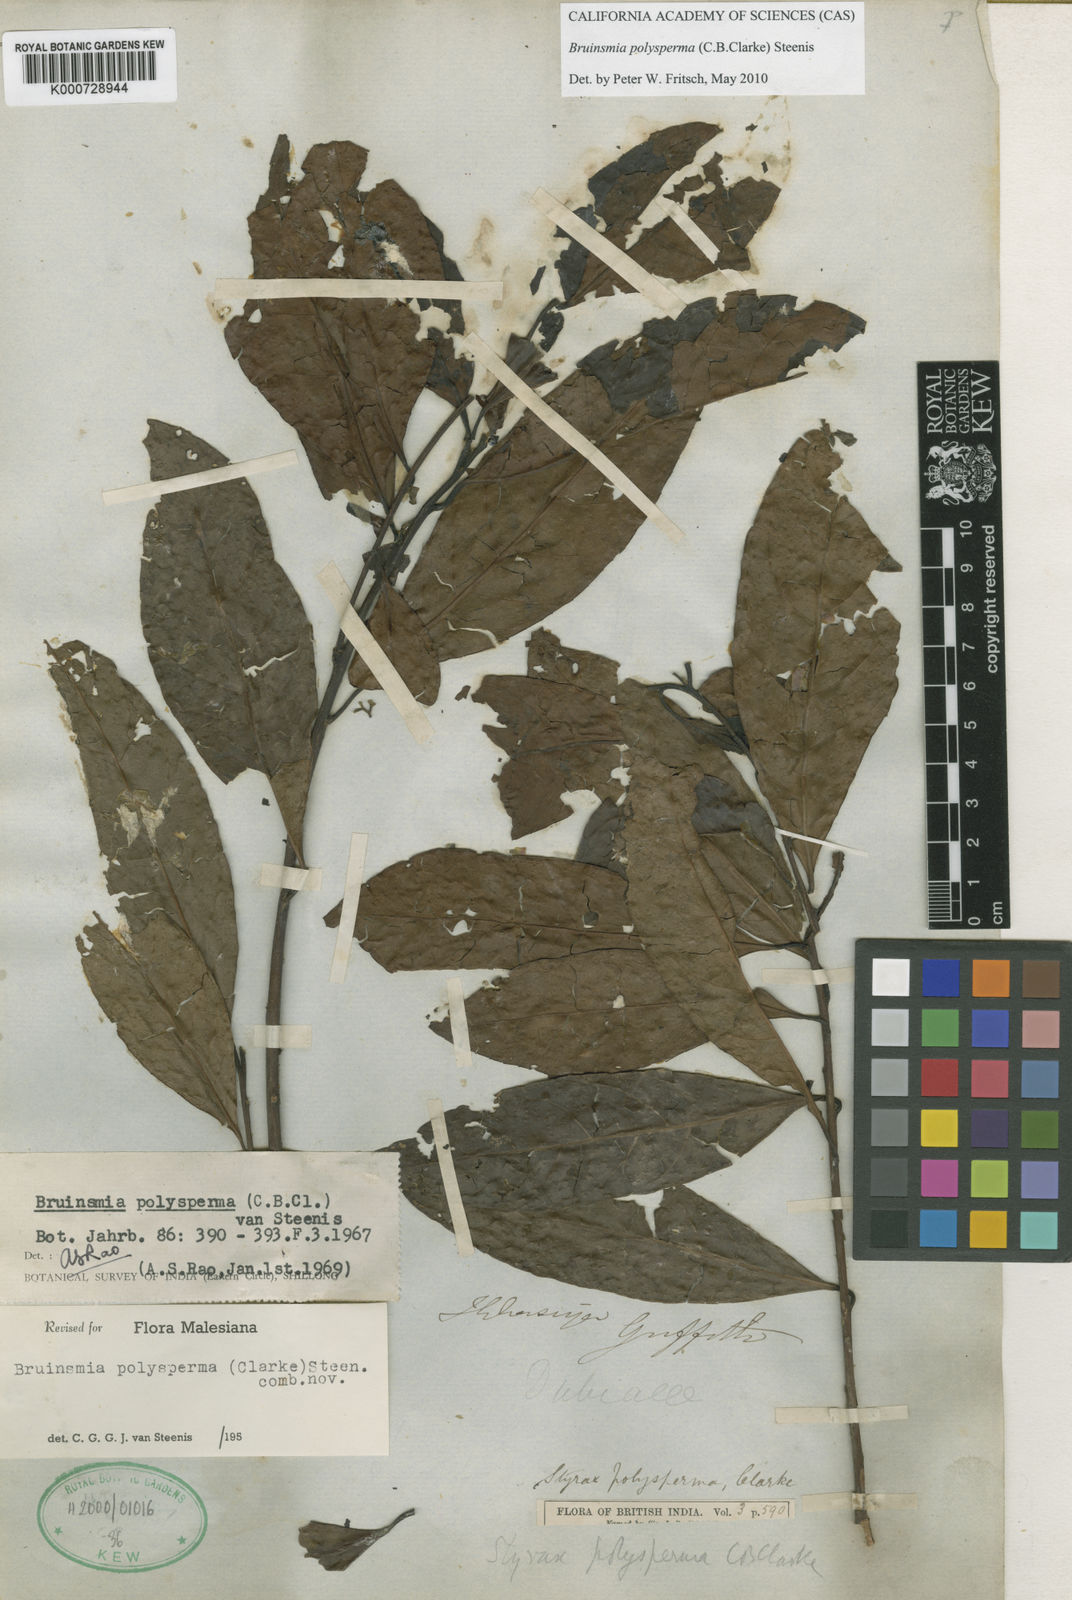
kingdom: Plantae
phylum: Tracheophyta
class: Magnoliopsida
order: Ericales
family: Styracaceae
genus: Bruinsmia
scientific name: Bruinsmia polysperma
